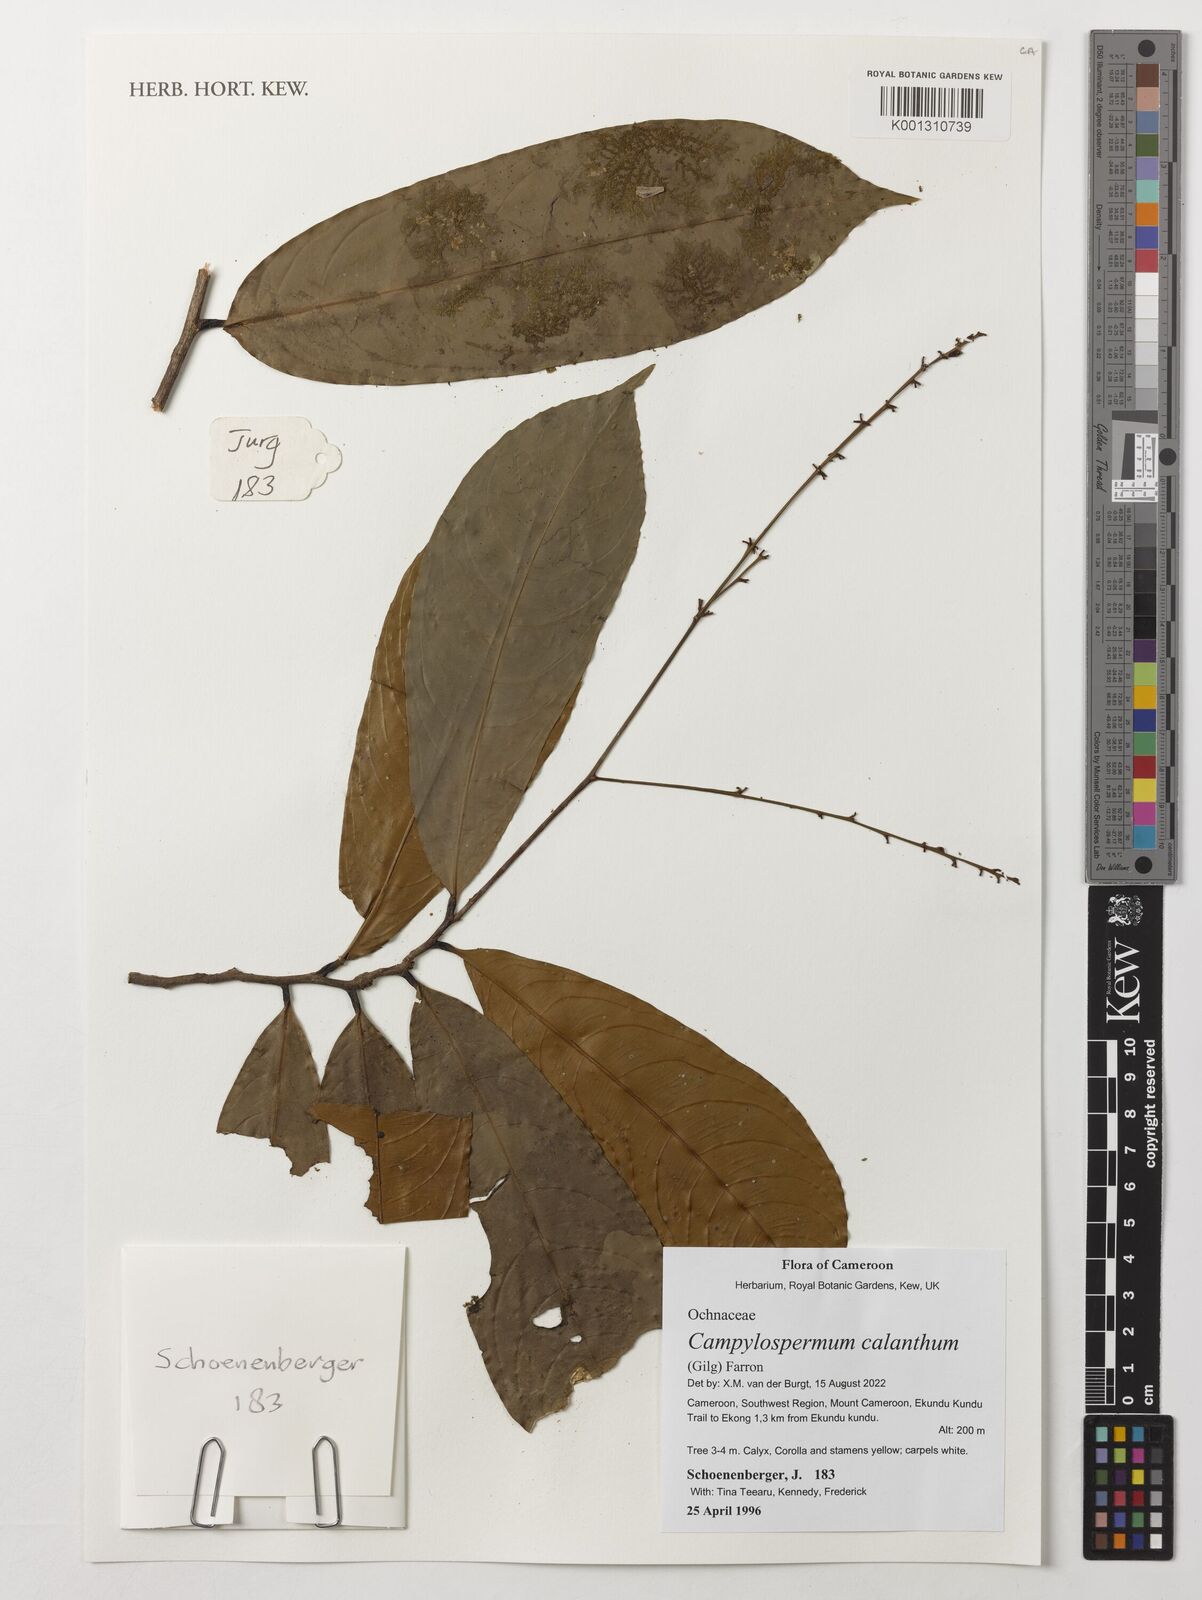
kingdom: Plantae
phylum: Tracheophyta
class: Magnoliopsida
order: Malpighiales
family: Ochnaceae
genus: Campylospermum
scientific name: Campylospermum calanthum
